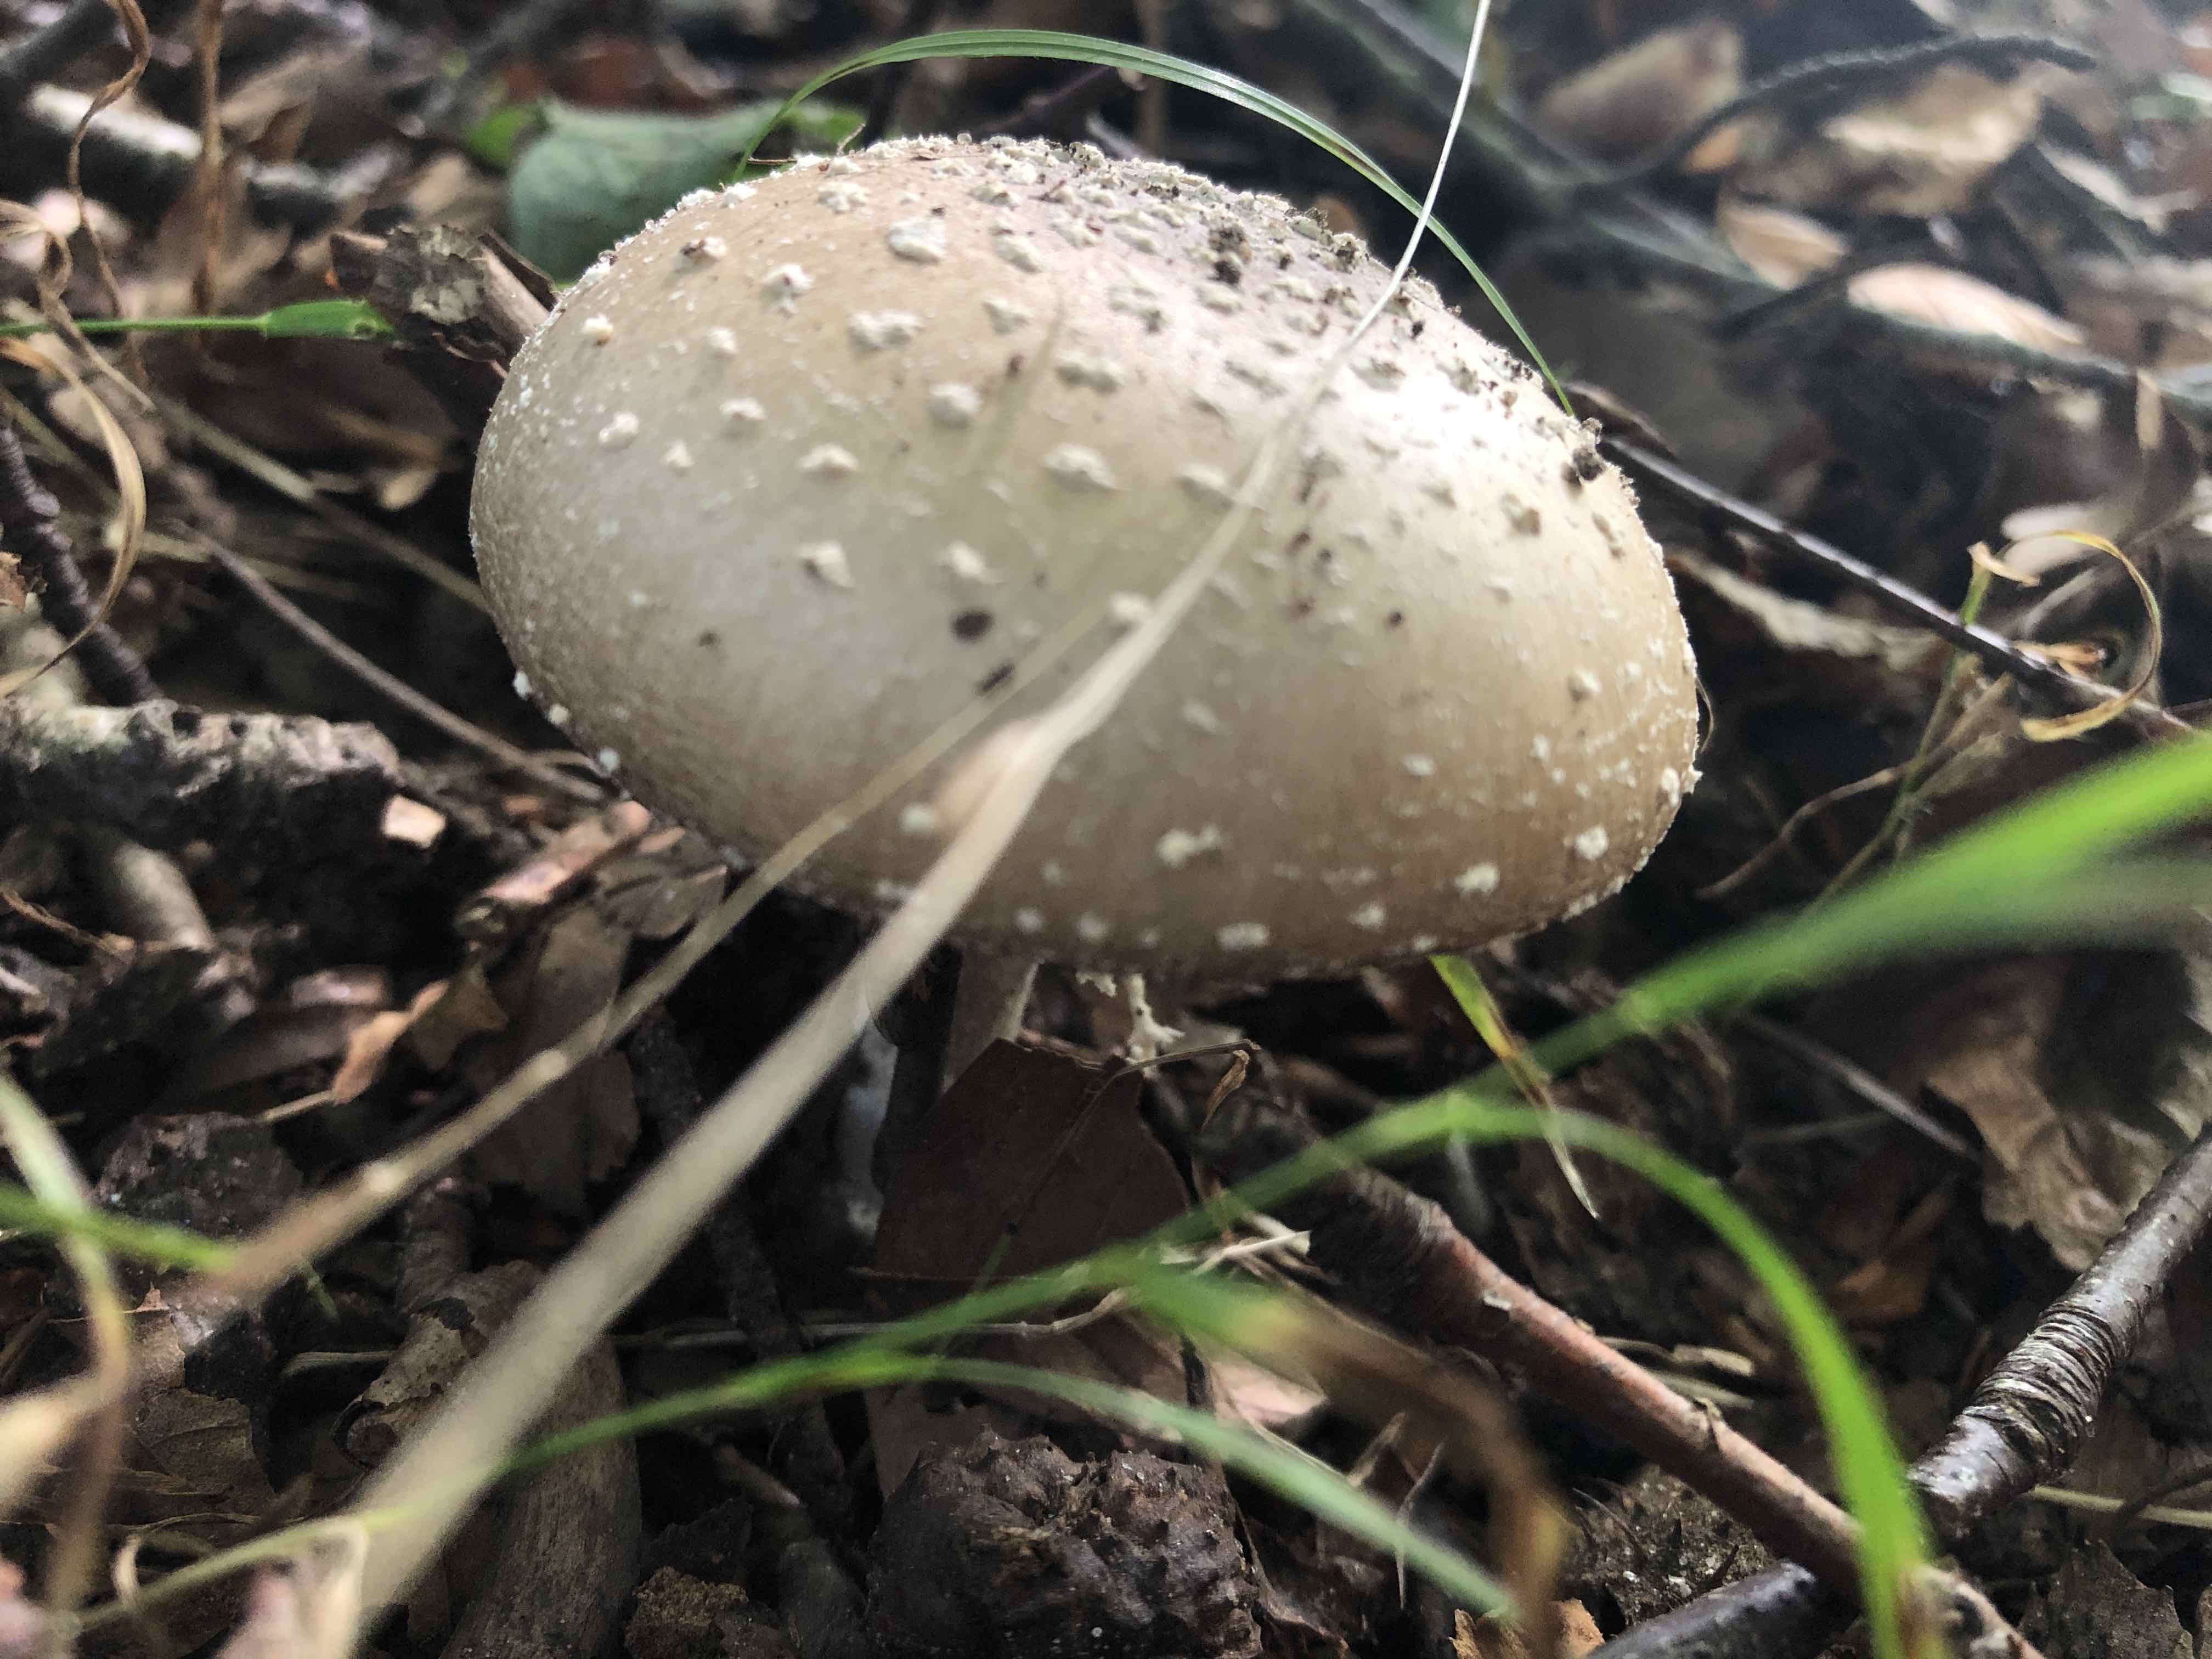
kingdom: Fungi
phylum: Basidiomycota
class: Agaricomycetes
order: Agaricales
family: Amanitaceae
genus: Amanita
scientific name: Amanita
